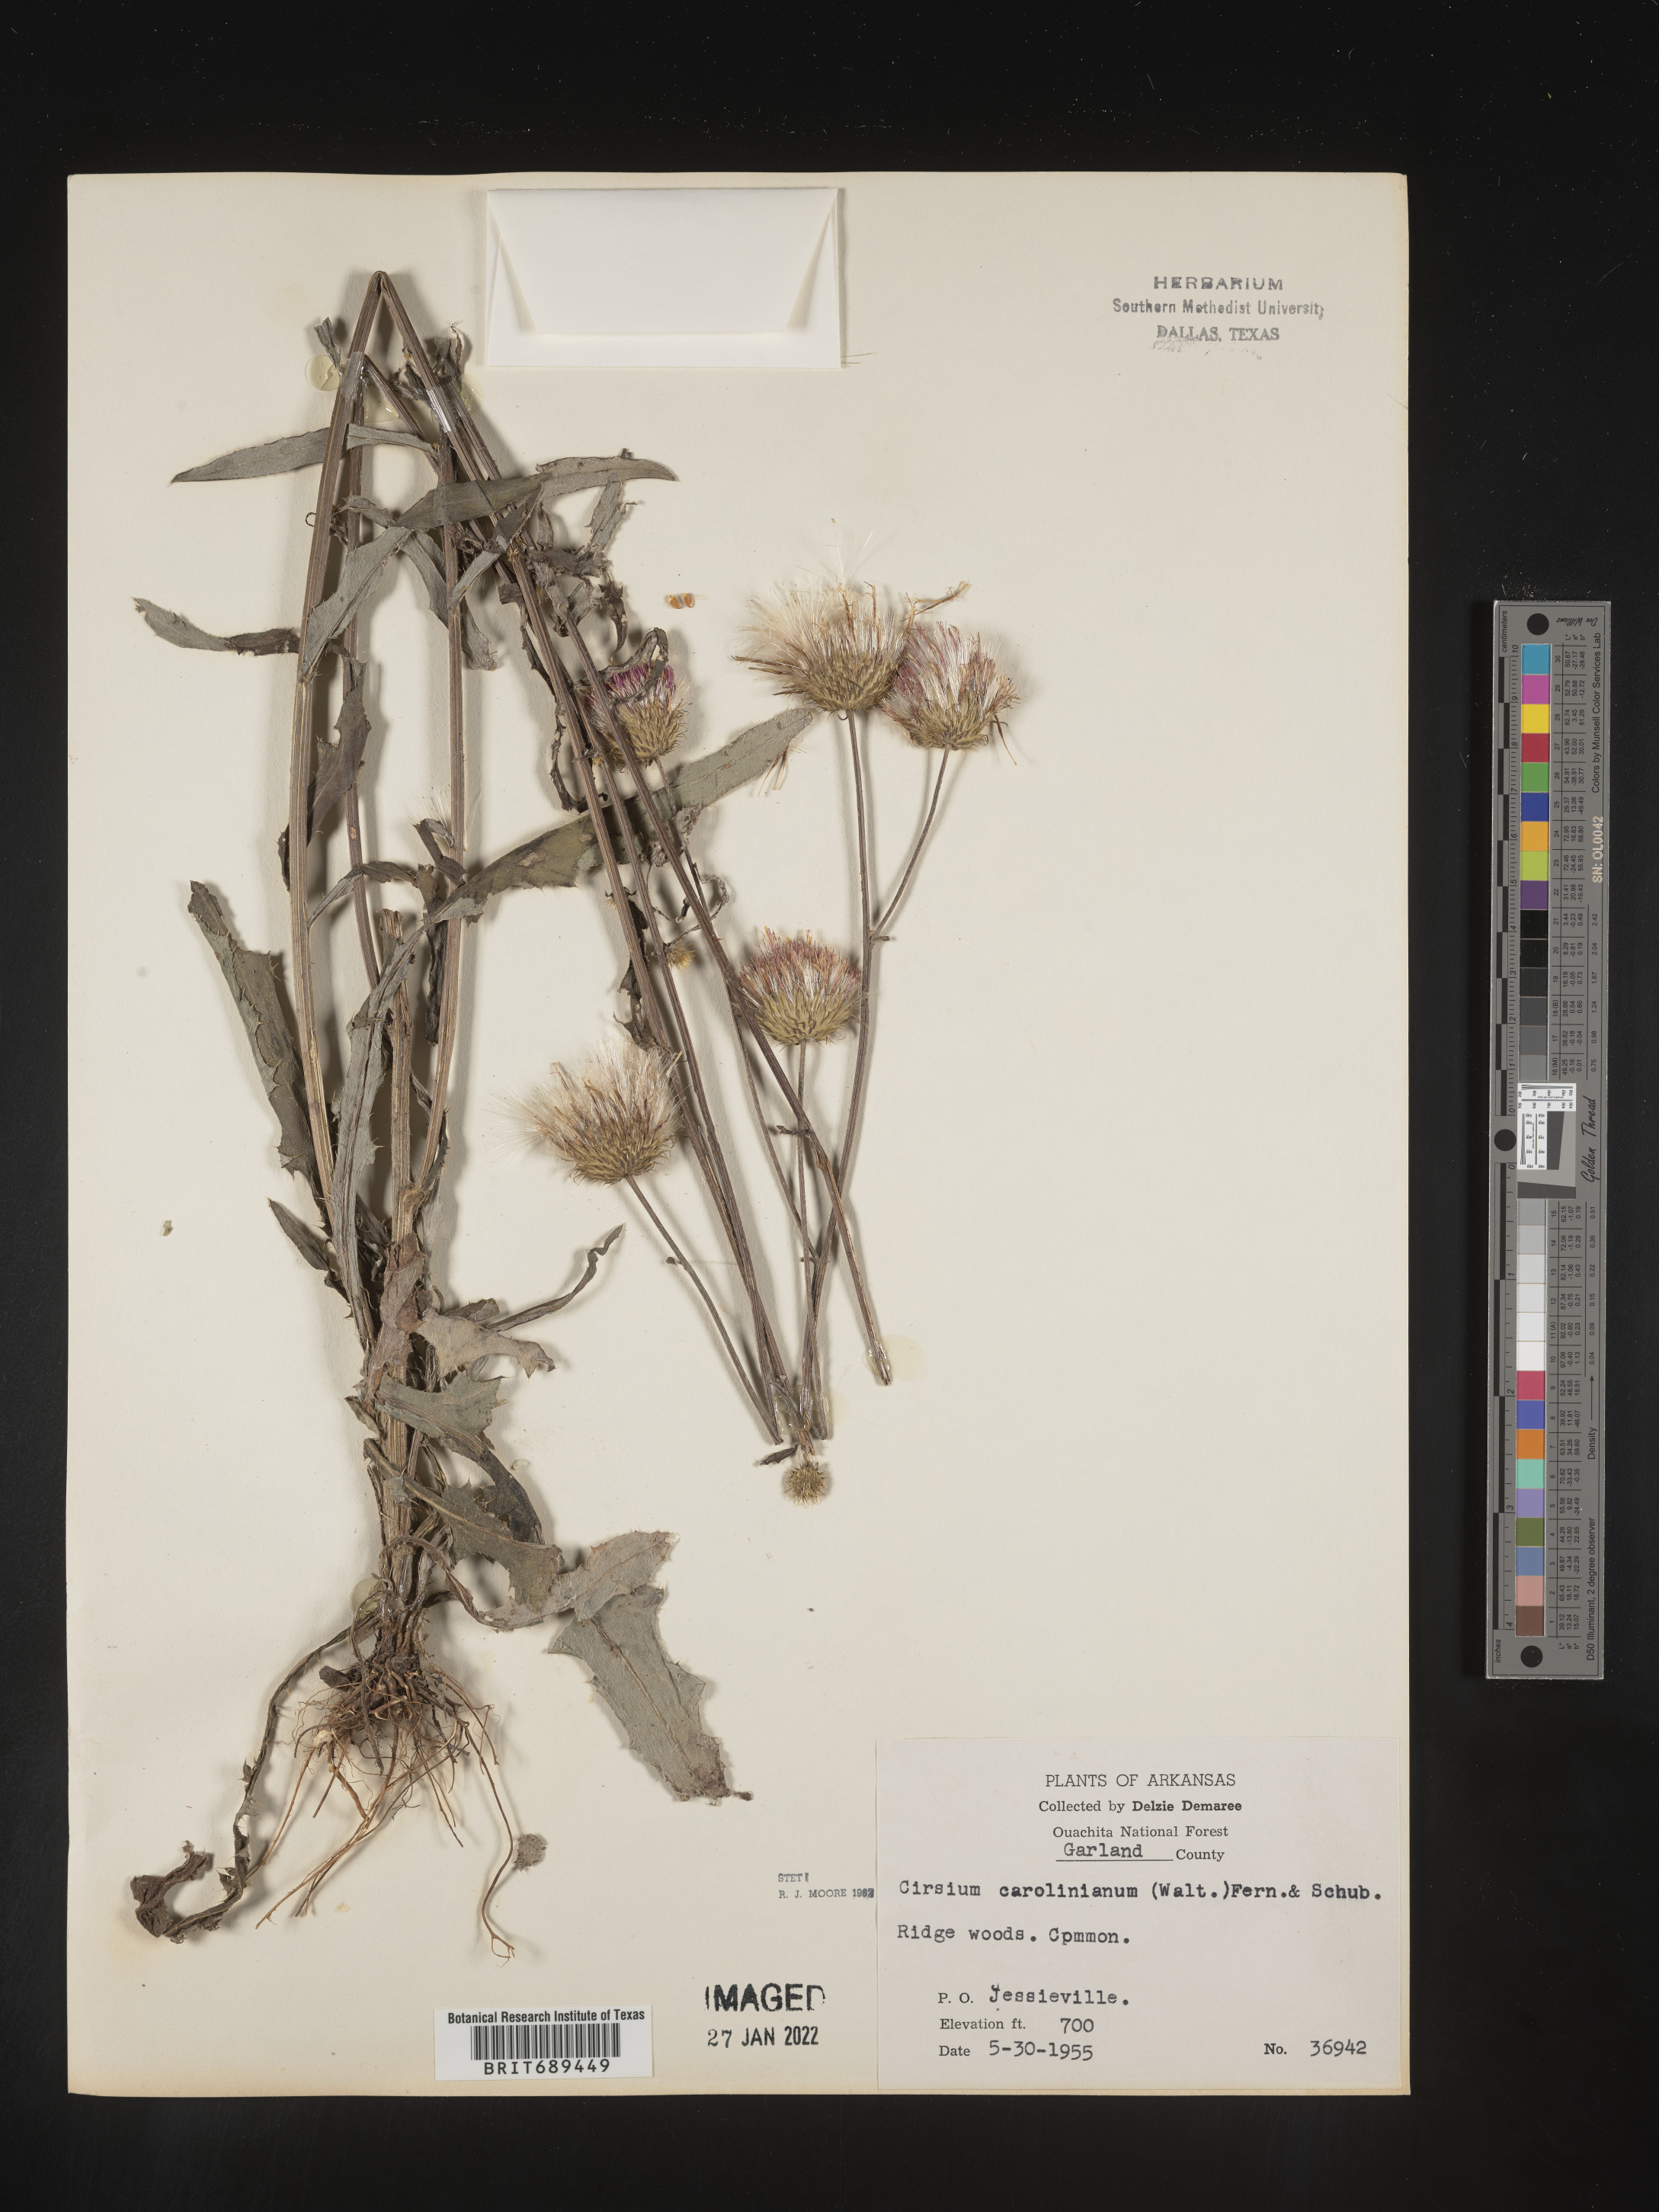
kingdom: Plantae
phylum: Tracheophyta
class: Magnoliopsida
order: Asterales
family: Asteraceae
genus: Cirsium
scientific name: Cirsium carolinianum
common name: Carolina thistle
